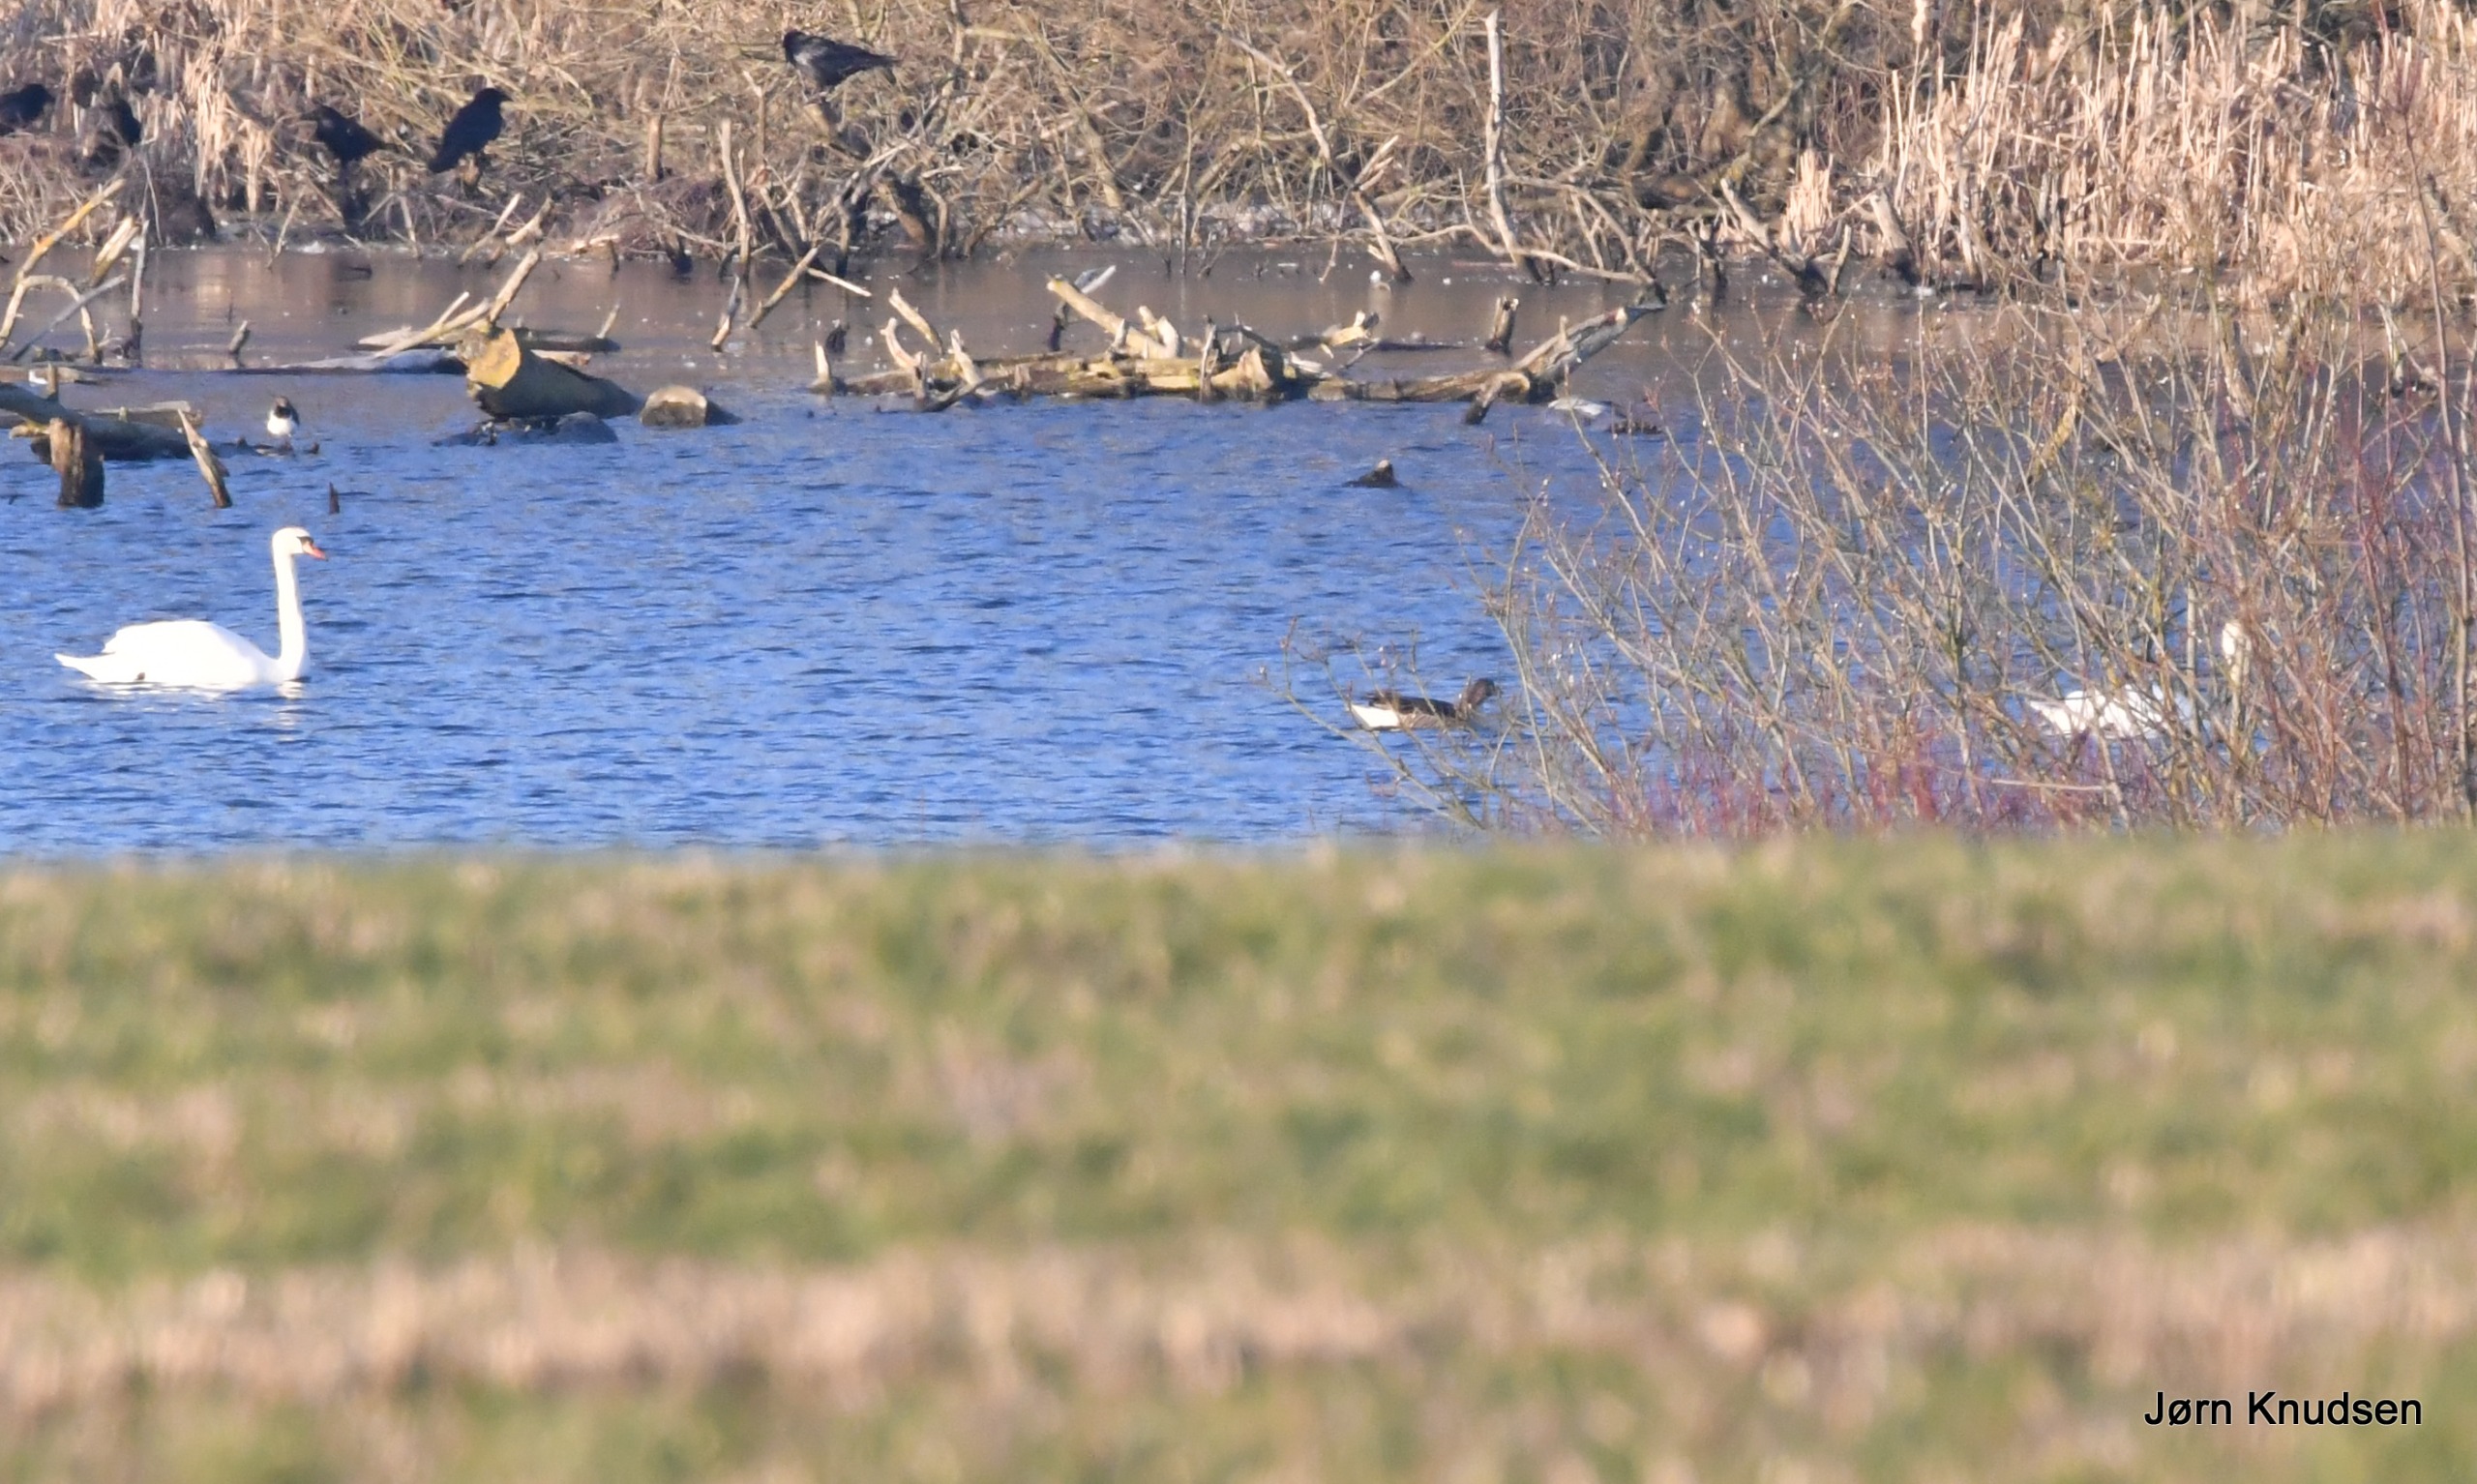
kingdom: Animalia
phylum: Chordata
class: Aves
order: Anseriformes
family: Anatidae
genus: Cygnus
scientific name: Cygnus olor
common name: Knopsvane
